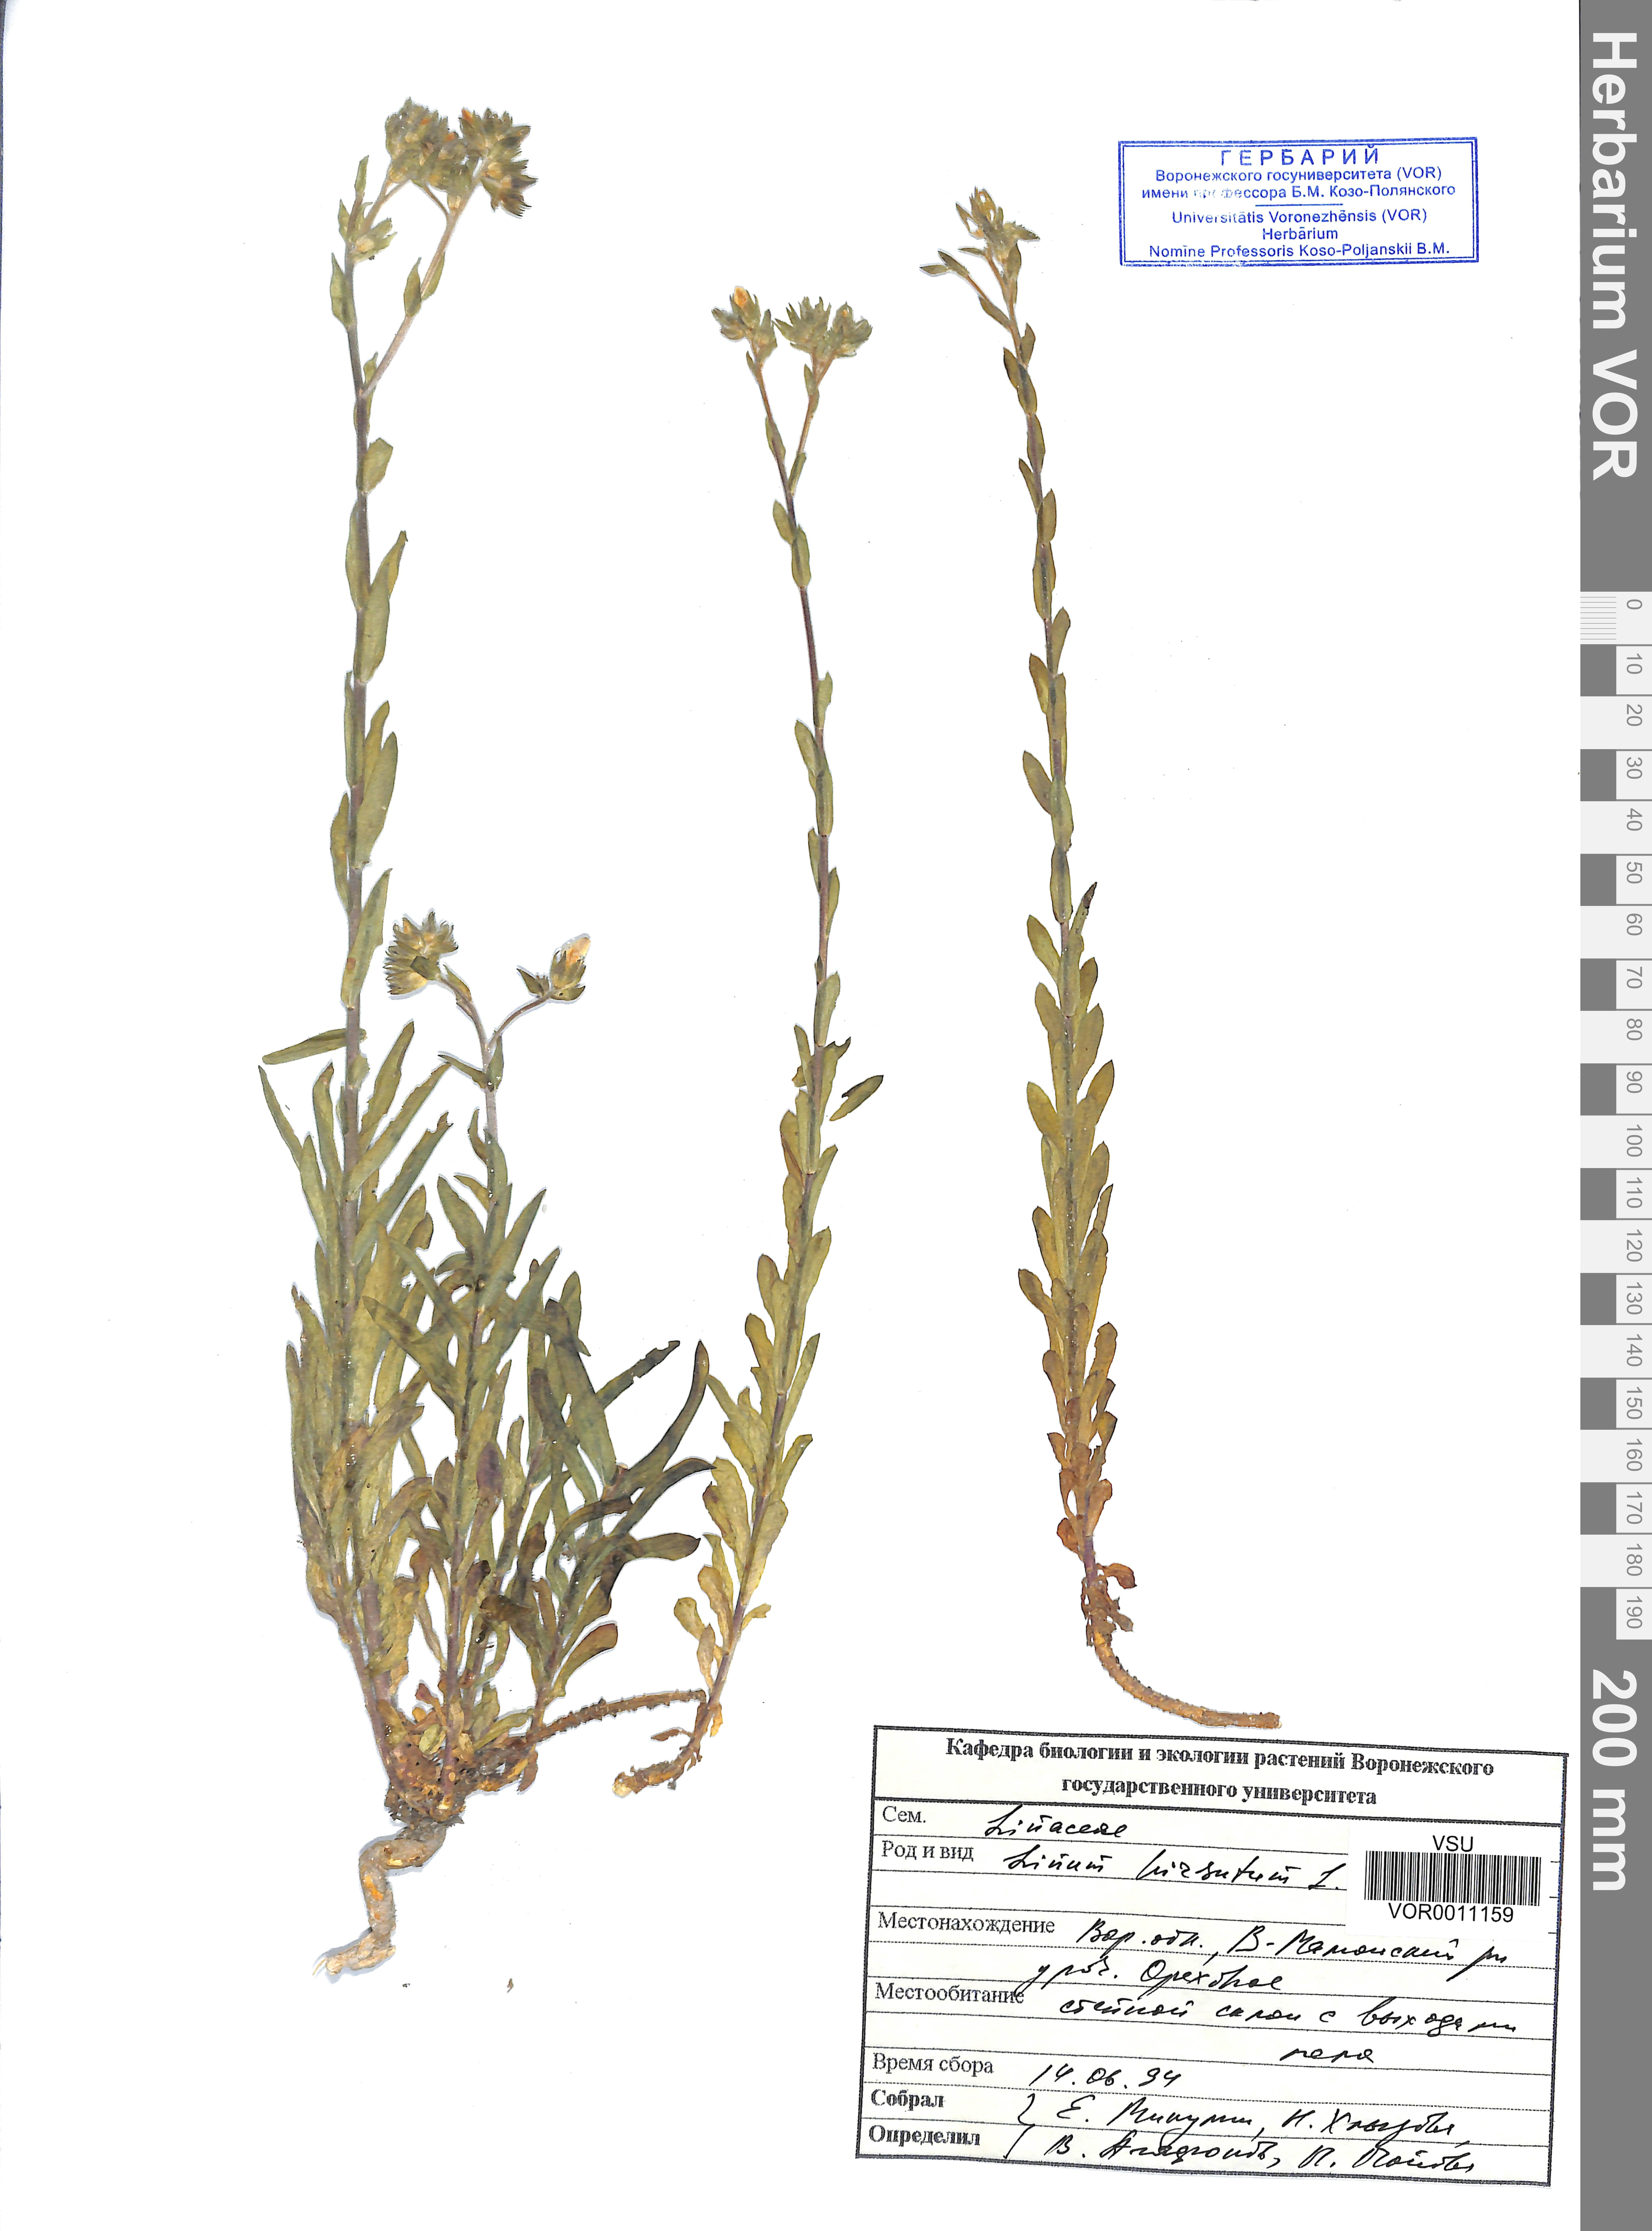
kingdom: Plantae
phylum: Tracheophyta
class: Magnoliopsida
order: Malpighiales
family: Linaceae
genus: Linum
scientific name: Linum hirsutum
